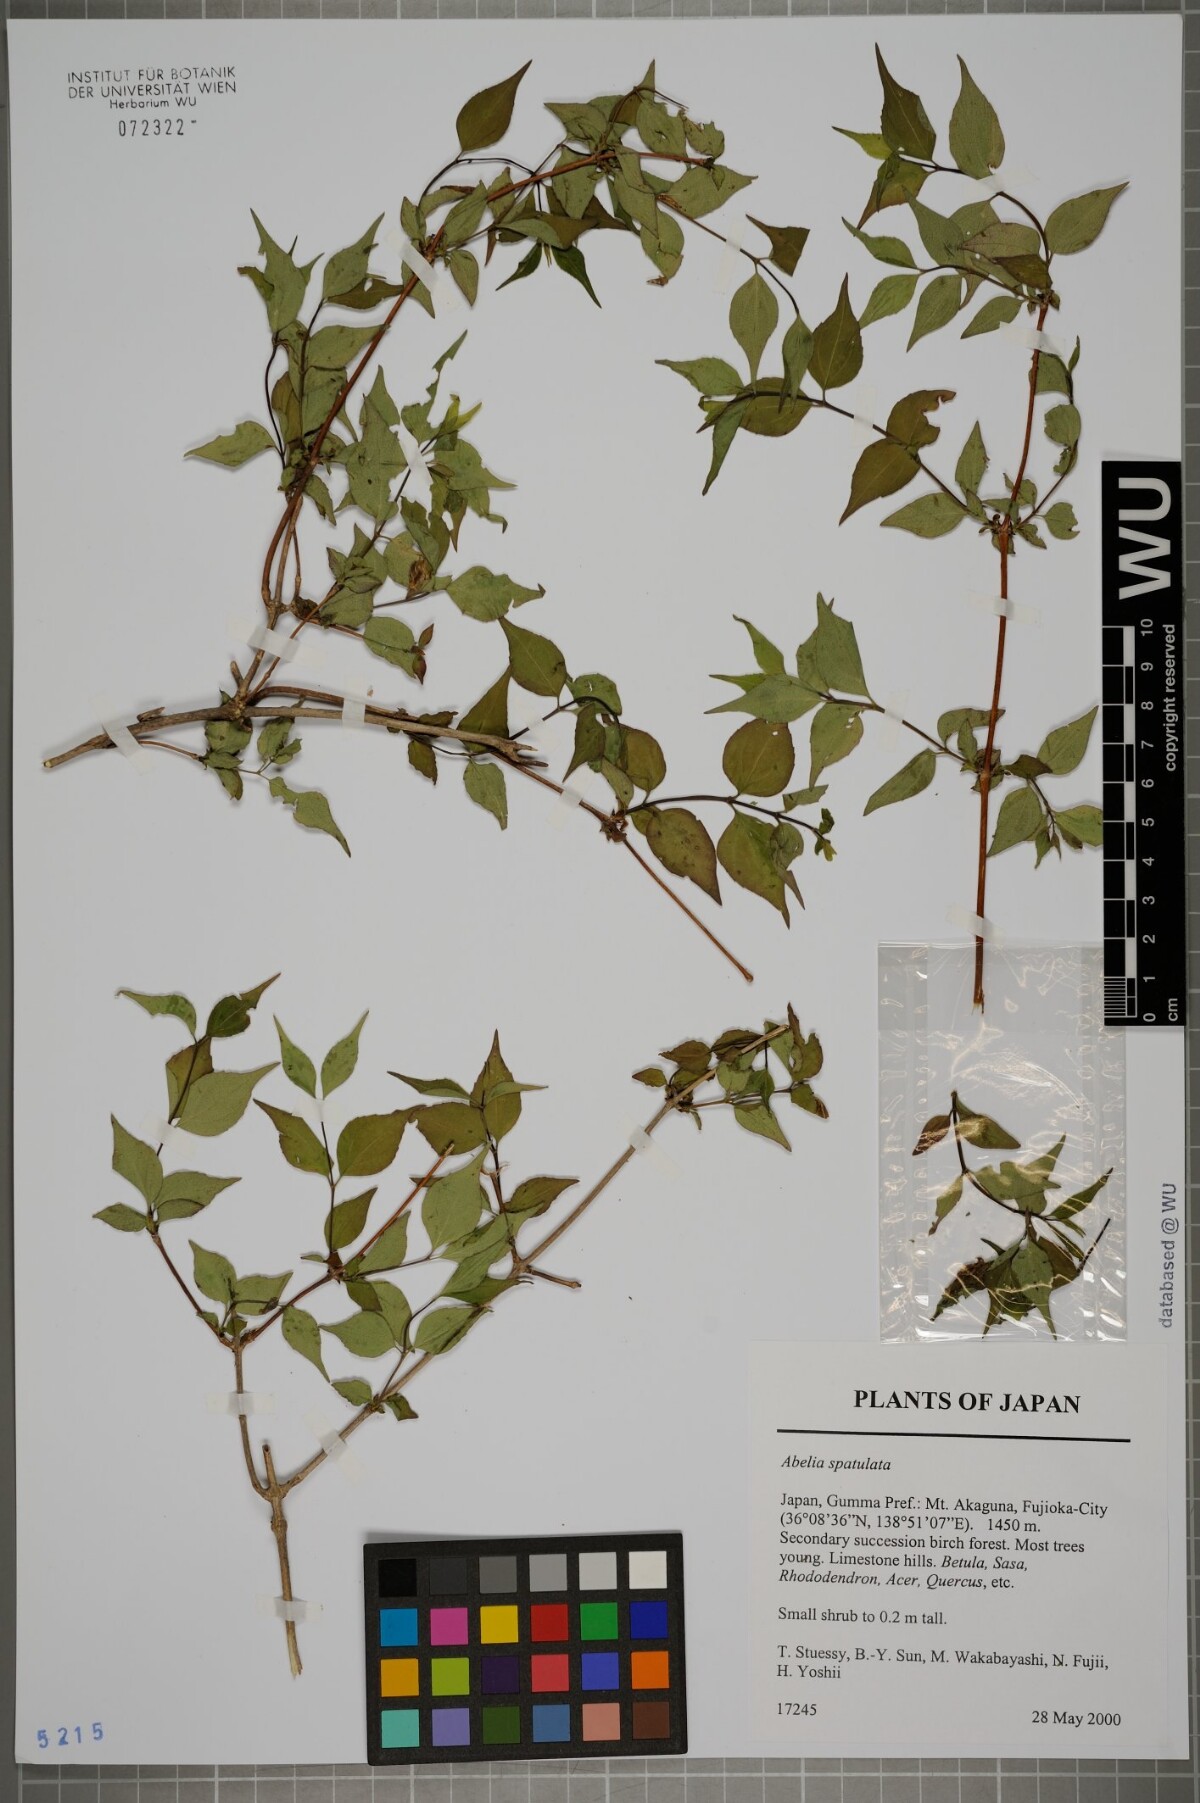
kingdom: Plantae
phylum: Tracheophyta
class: Magnoliopsida
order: Dipsacales
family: Caprifoliaceae
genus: Diabelia
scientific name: Diabelia spathulata
